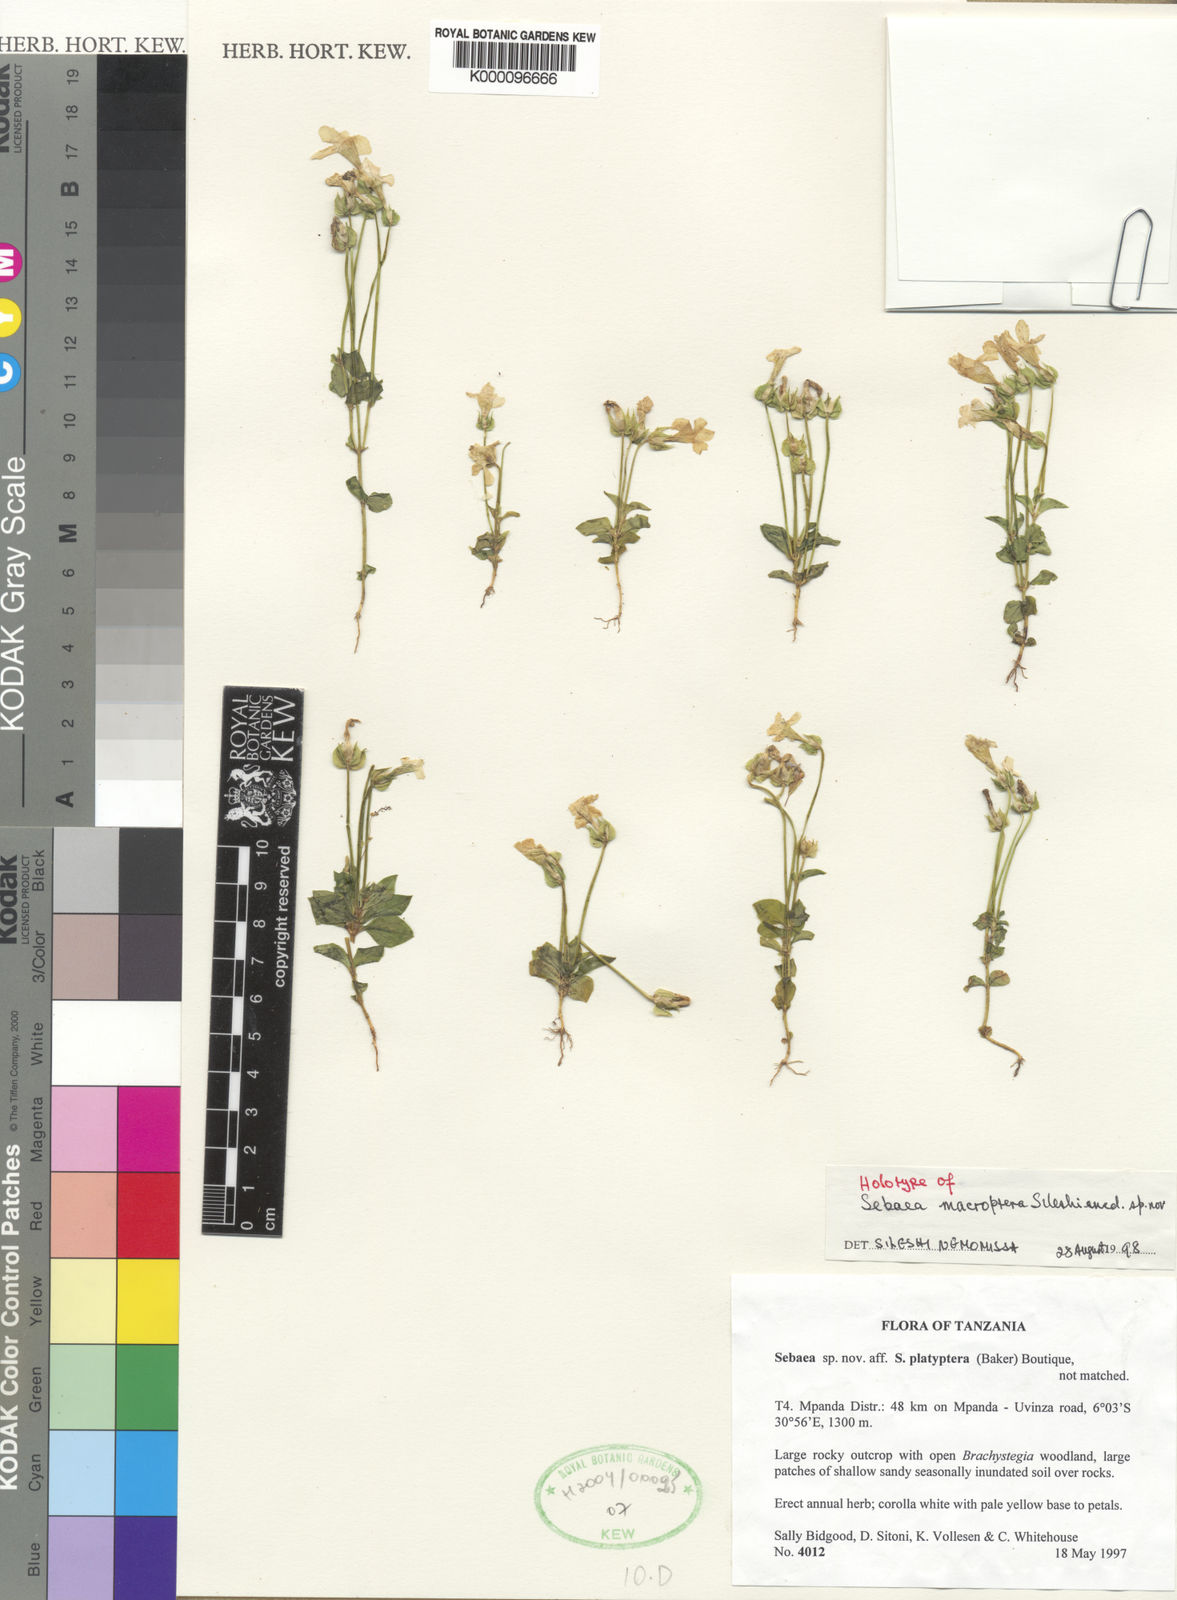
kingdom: Plantae
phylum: Tracheophyta
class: Magnoliopsida
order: Gentianales
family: Gentianaceae
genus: Exochaenium
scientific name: Exochaenium macropterum
